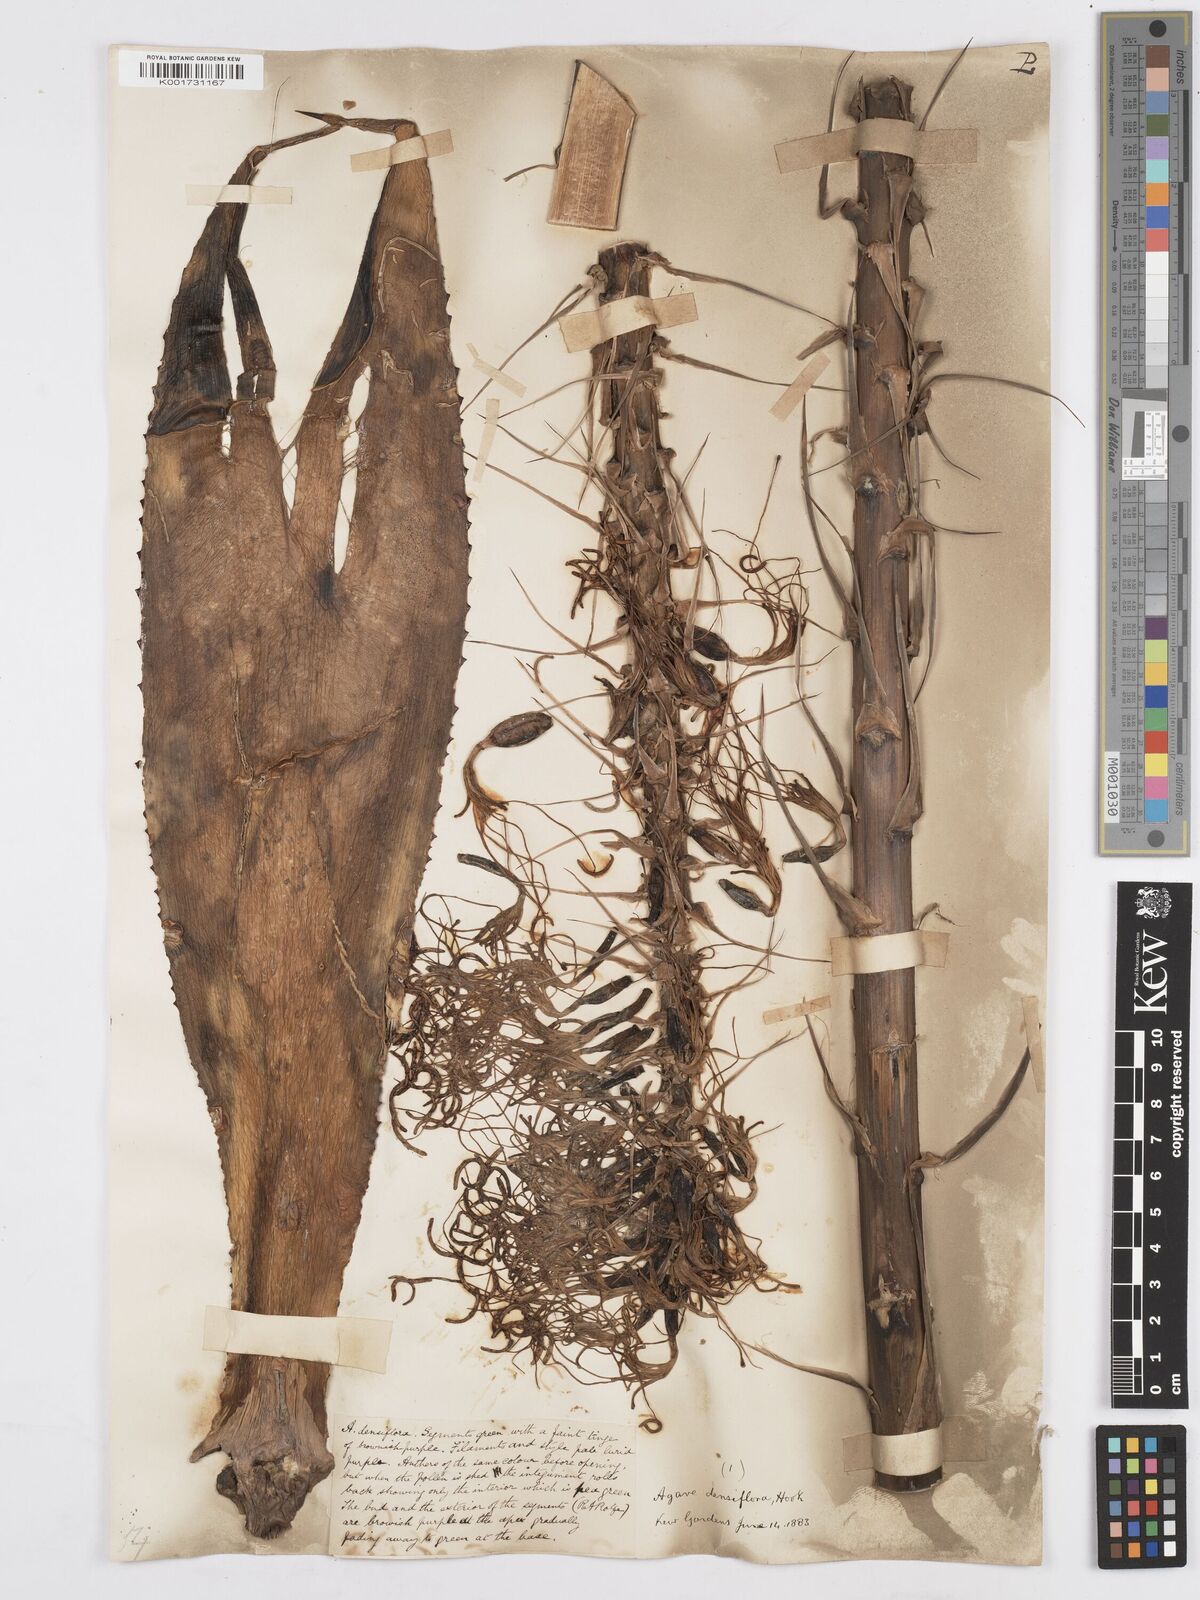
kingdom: Plantae
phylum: Tracheophyta
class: Liliopsida
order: Asparagales
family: Asparagaceae
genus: Agave
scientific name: Agave polyacantha
